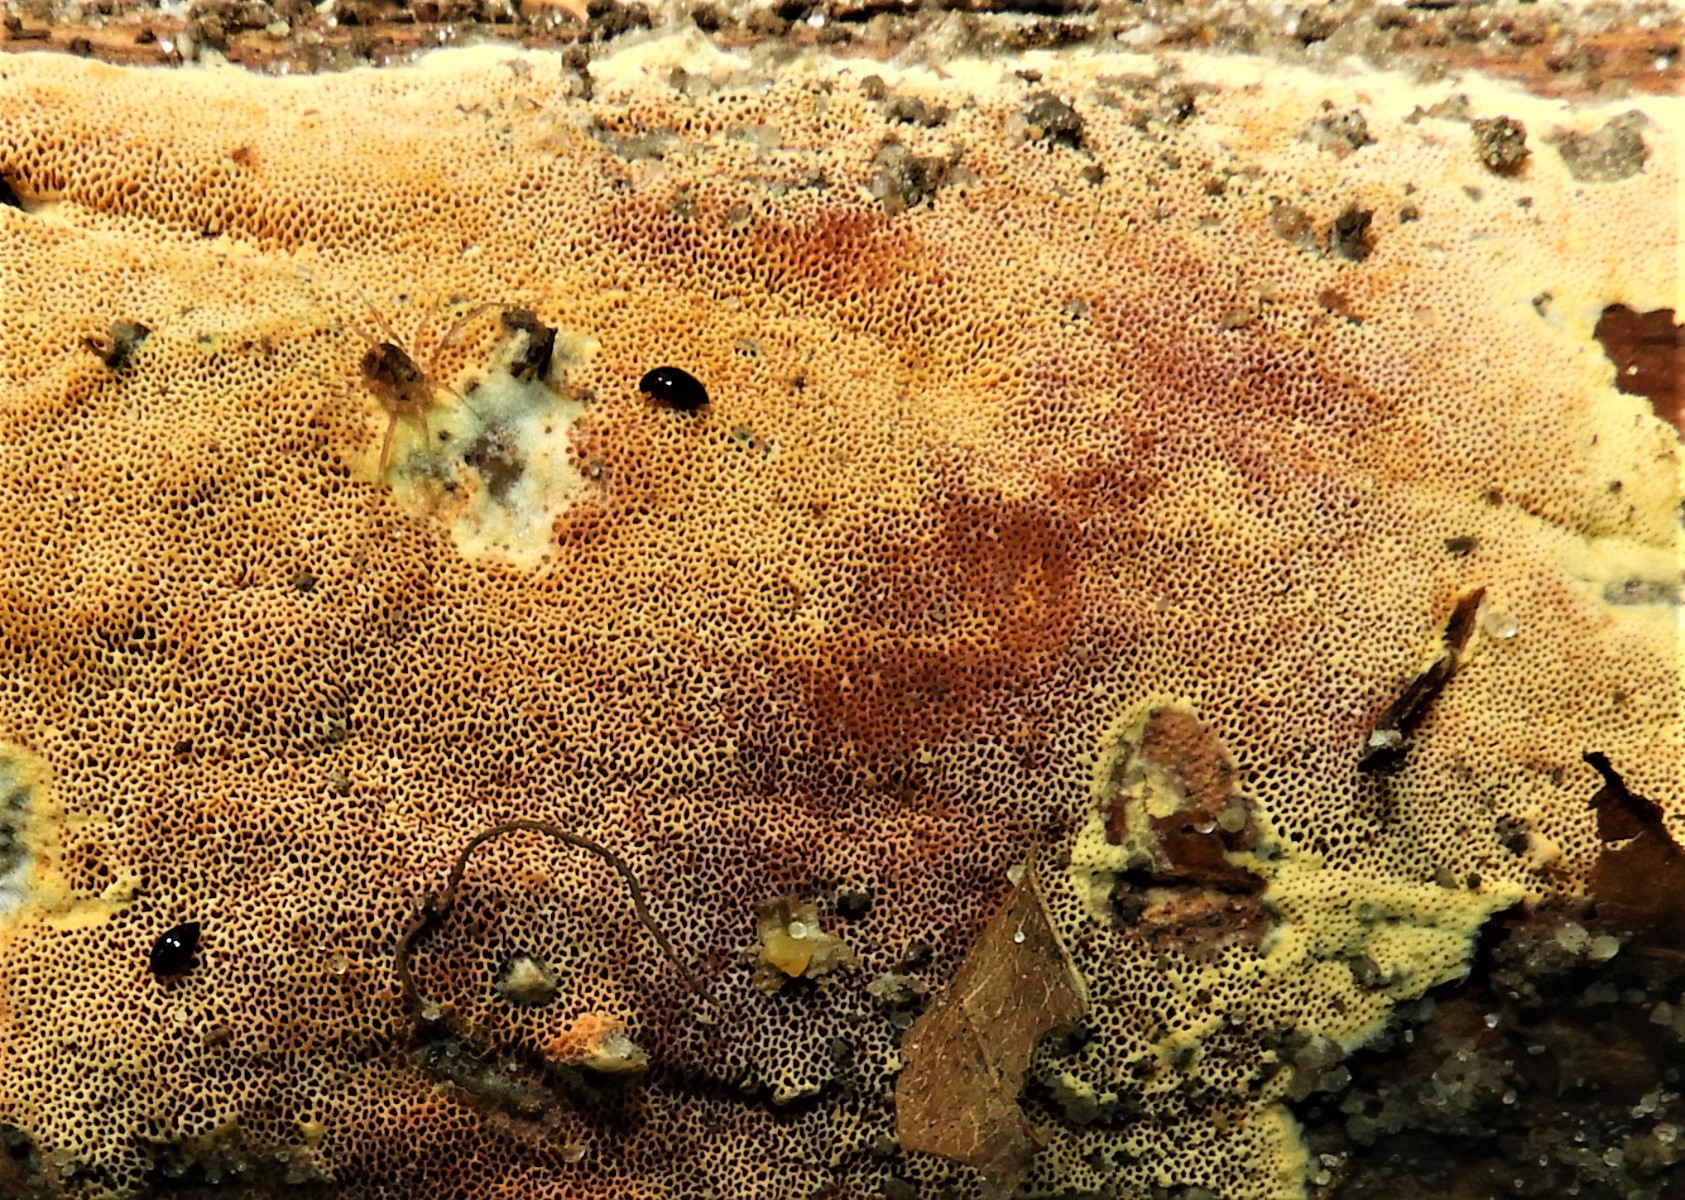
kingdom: Fungi
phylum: Basidiomycota
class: Agaricomycetes
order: Polyporales
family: Irpicaceae
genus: Ceriporia
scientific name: Ceriporia
